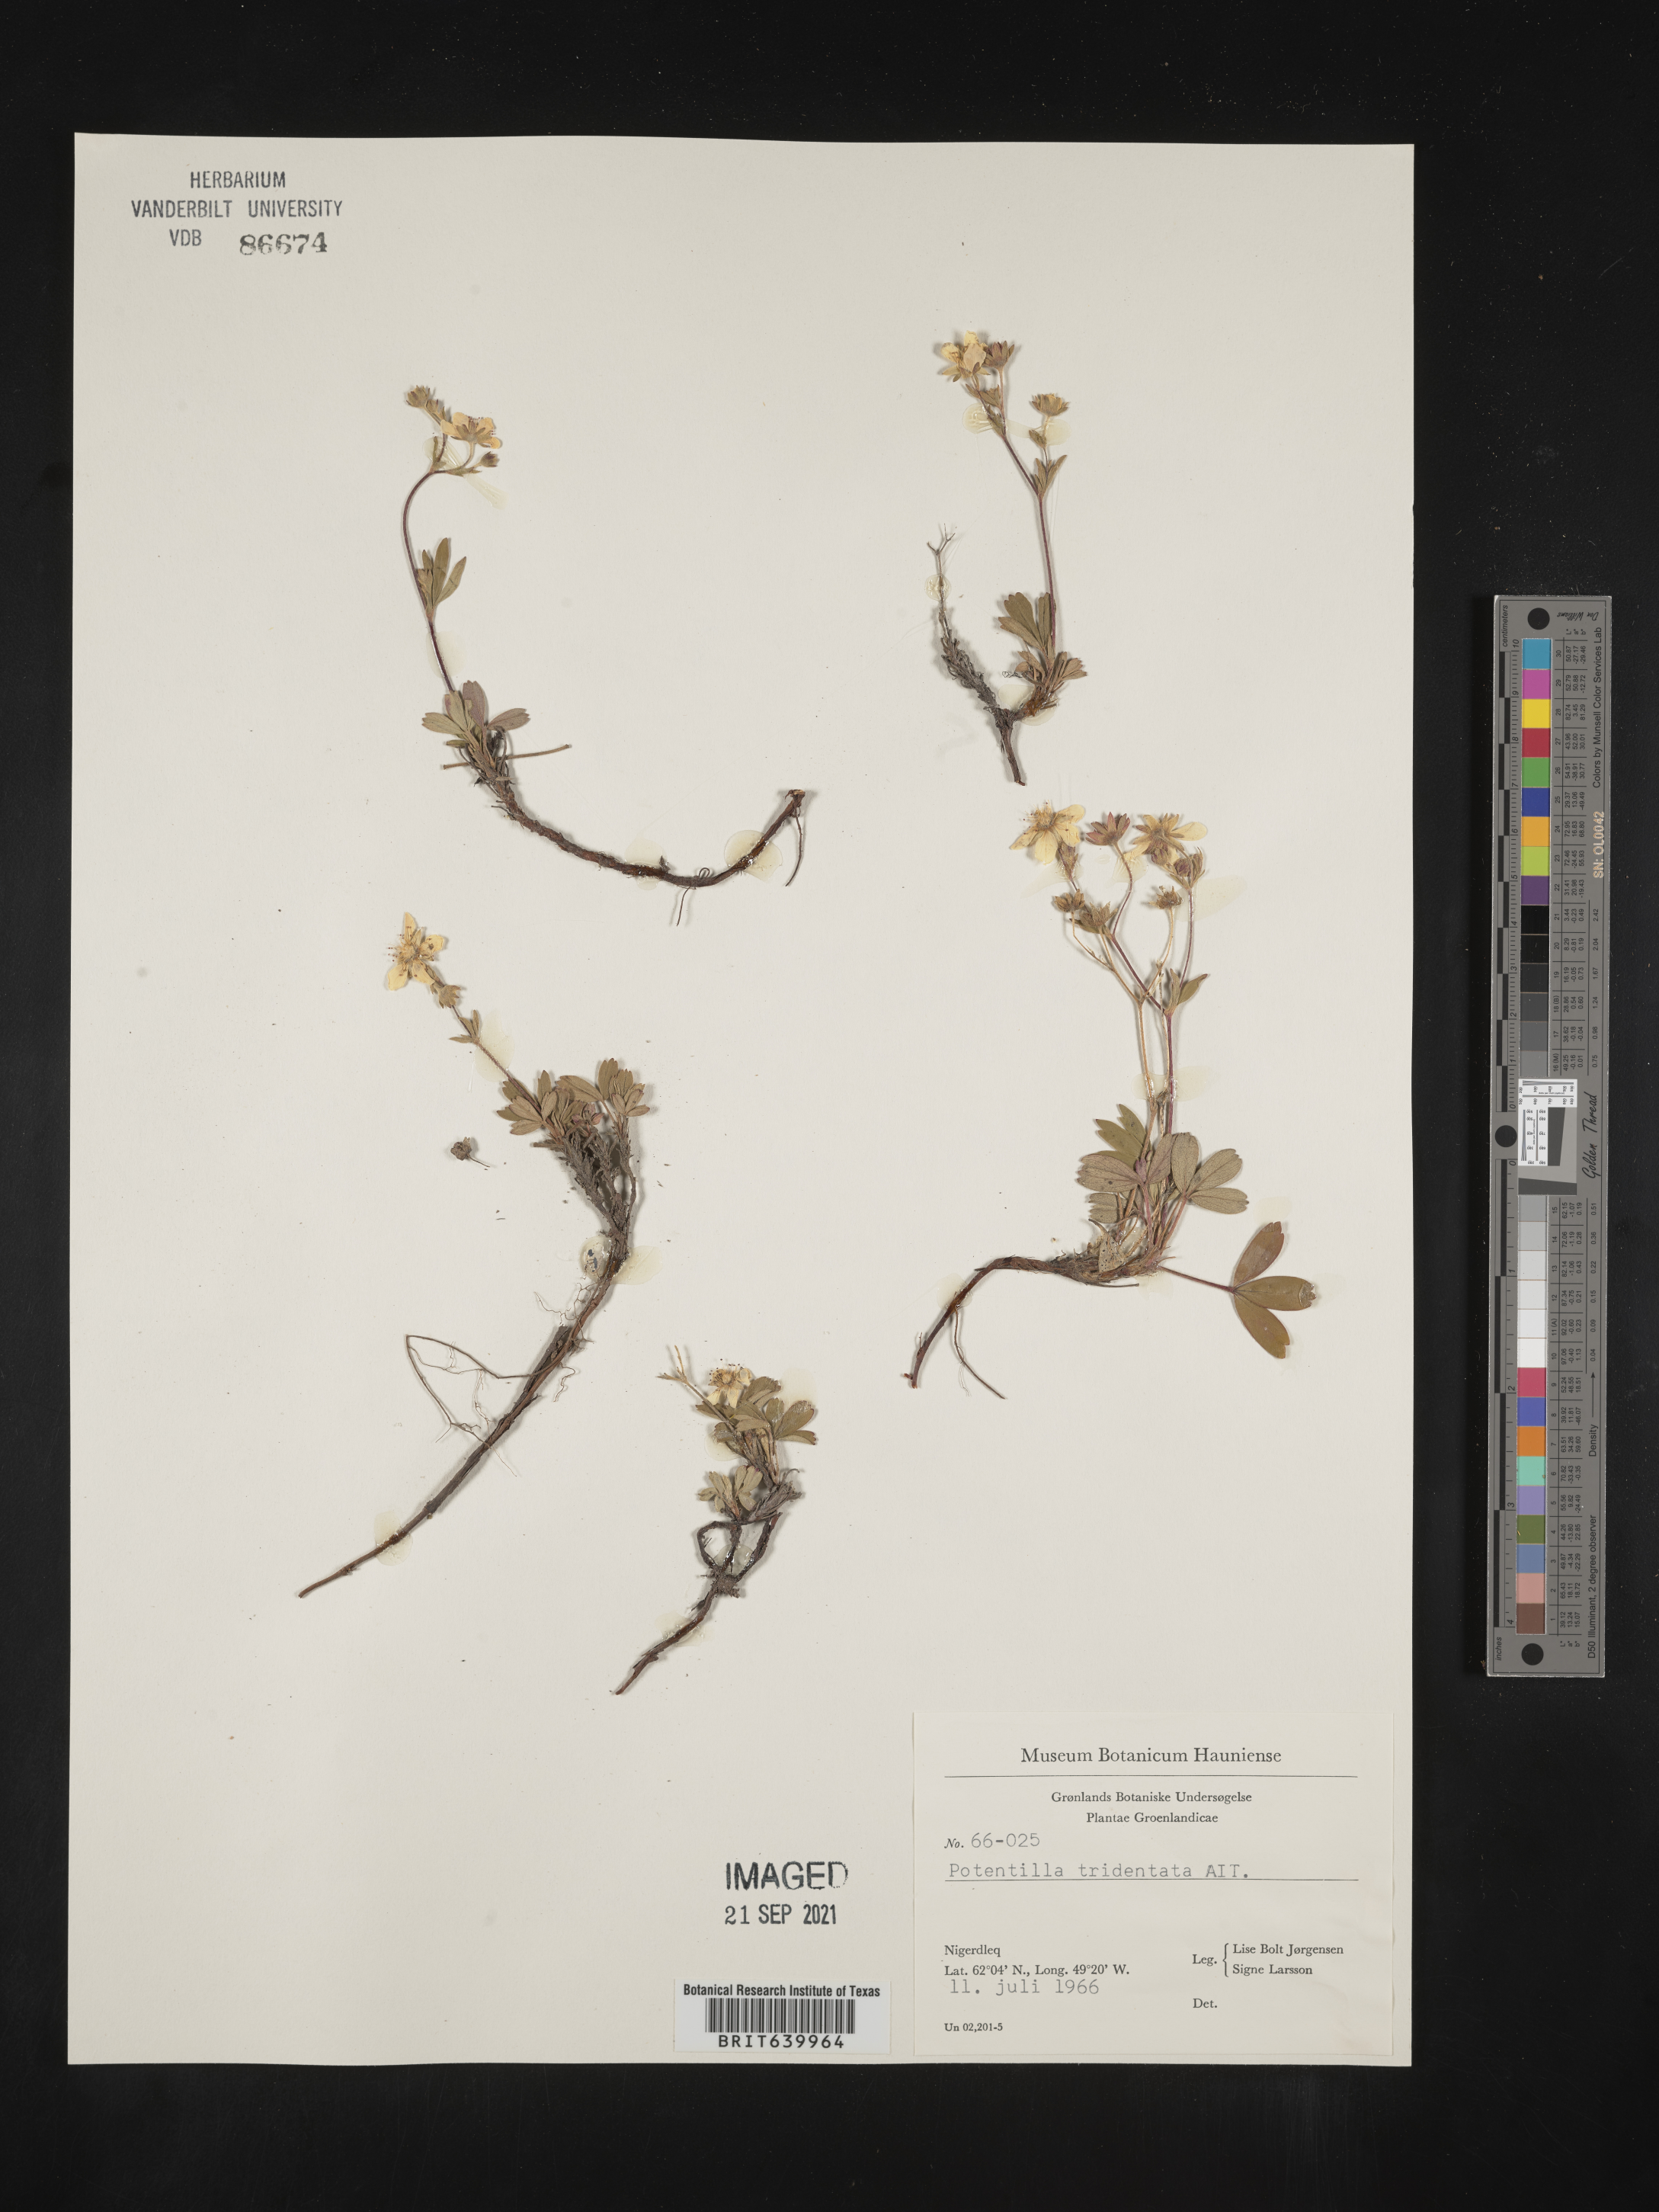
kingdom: Plantae
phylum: Tracheophyta
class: Magnoliopsida
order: Rosales
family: Rosaceae
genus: Potentilla
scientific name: Potentilla
